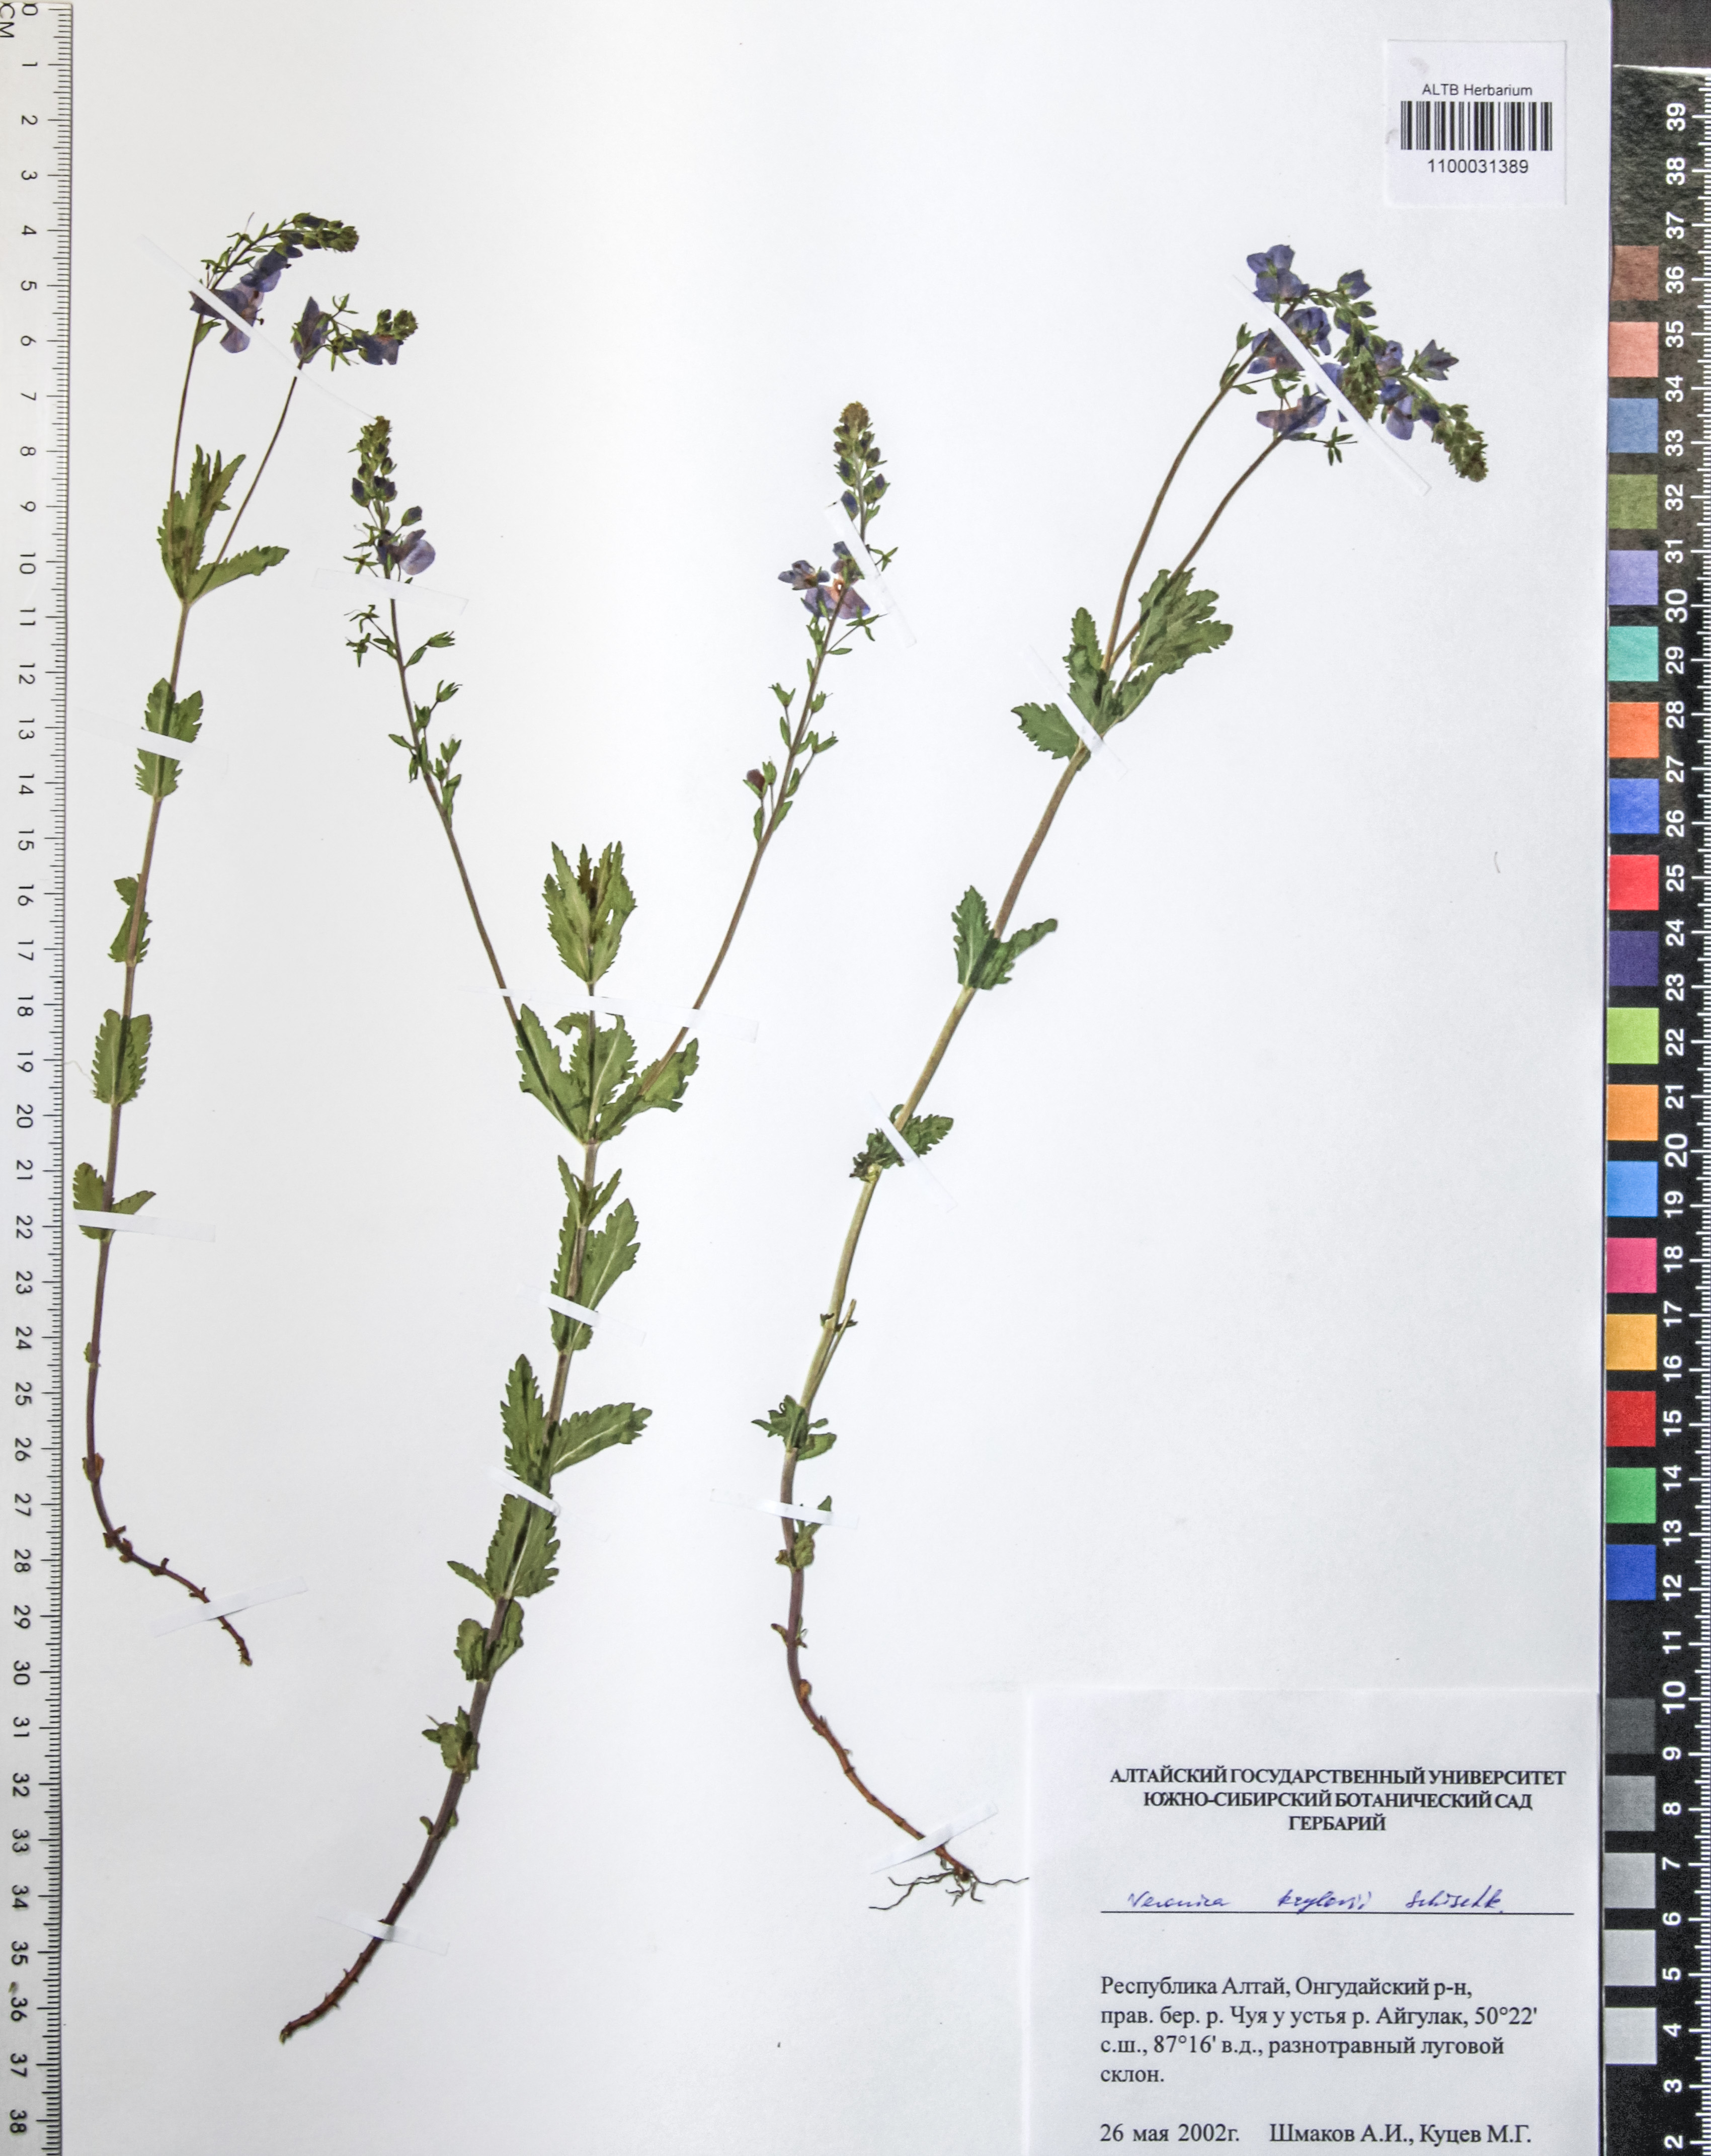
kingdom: Plantae
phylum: Tracheophyta
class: Magnoliopsida
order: Lamiales
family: Plantaginaceae
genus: Veronica
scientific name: Veronica krylovii
